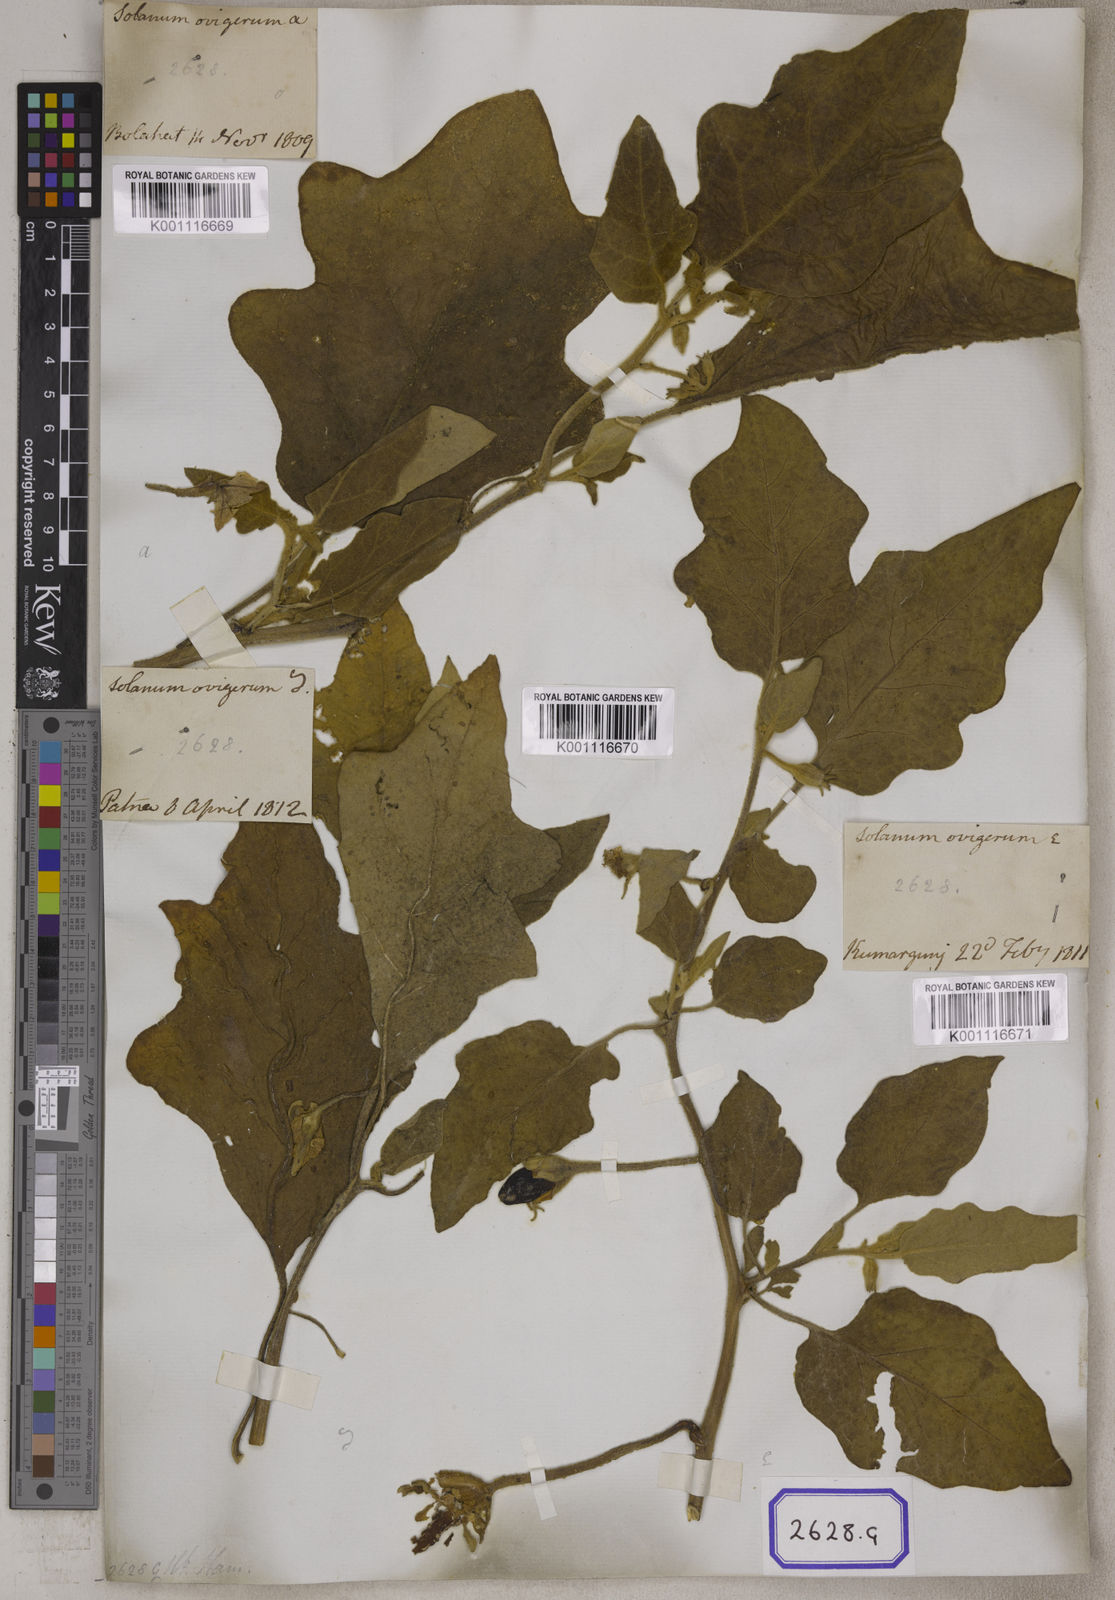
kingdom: Plantae
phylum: Tracheophyta
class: Magnoliopsida
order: Solanales
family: Solanaceae
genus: Solanum
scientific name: Solanum melongena
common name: Eggplant
